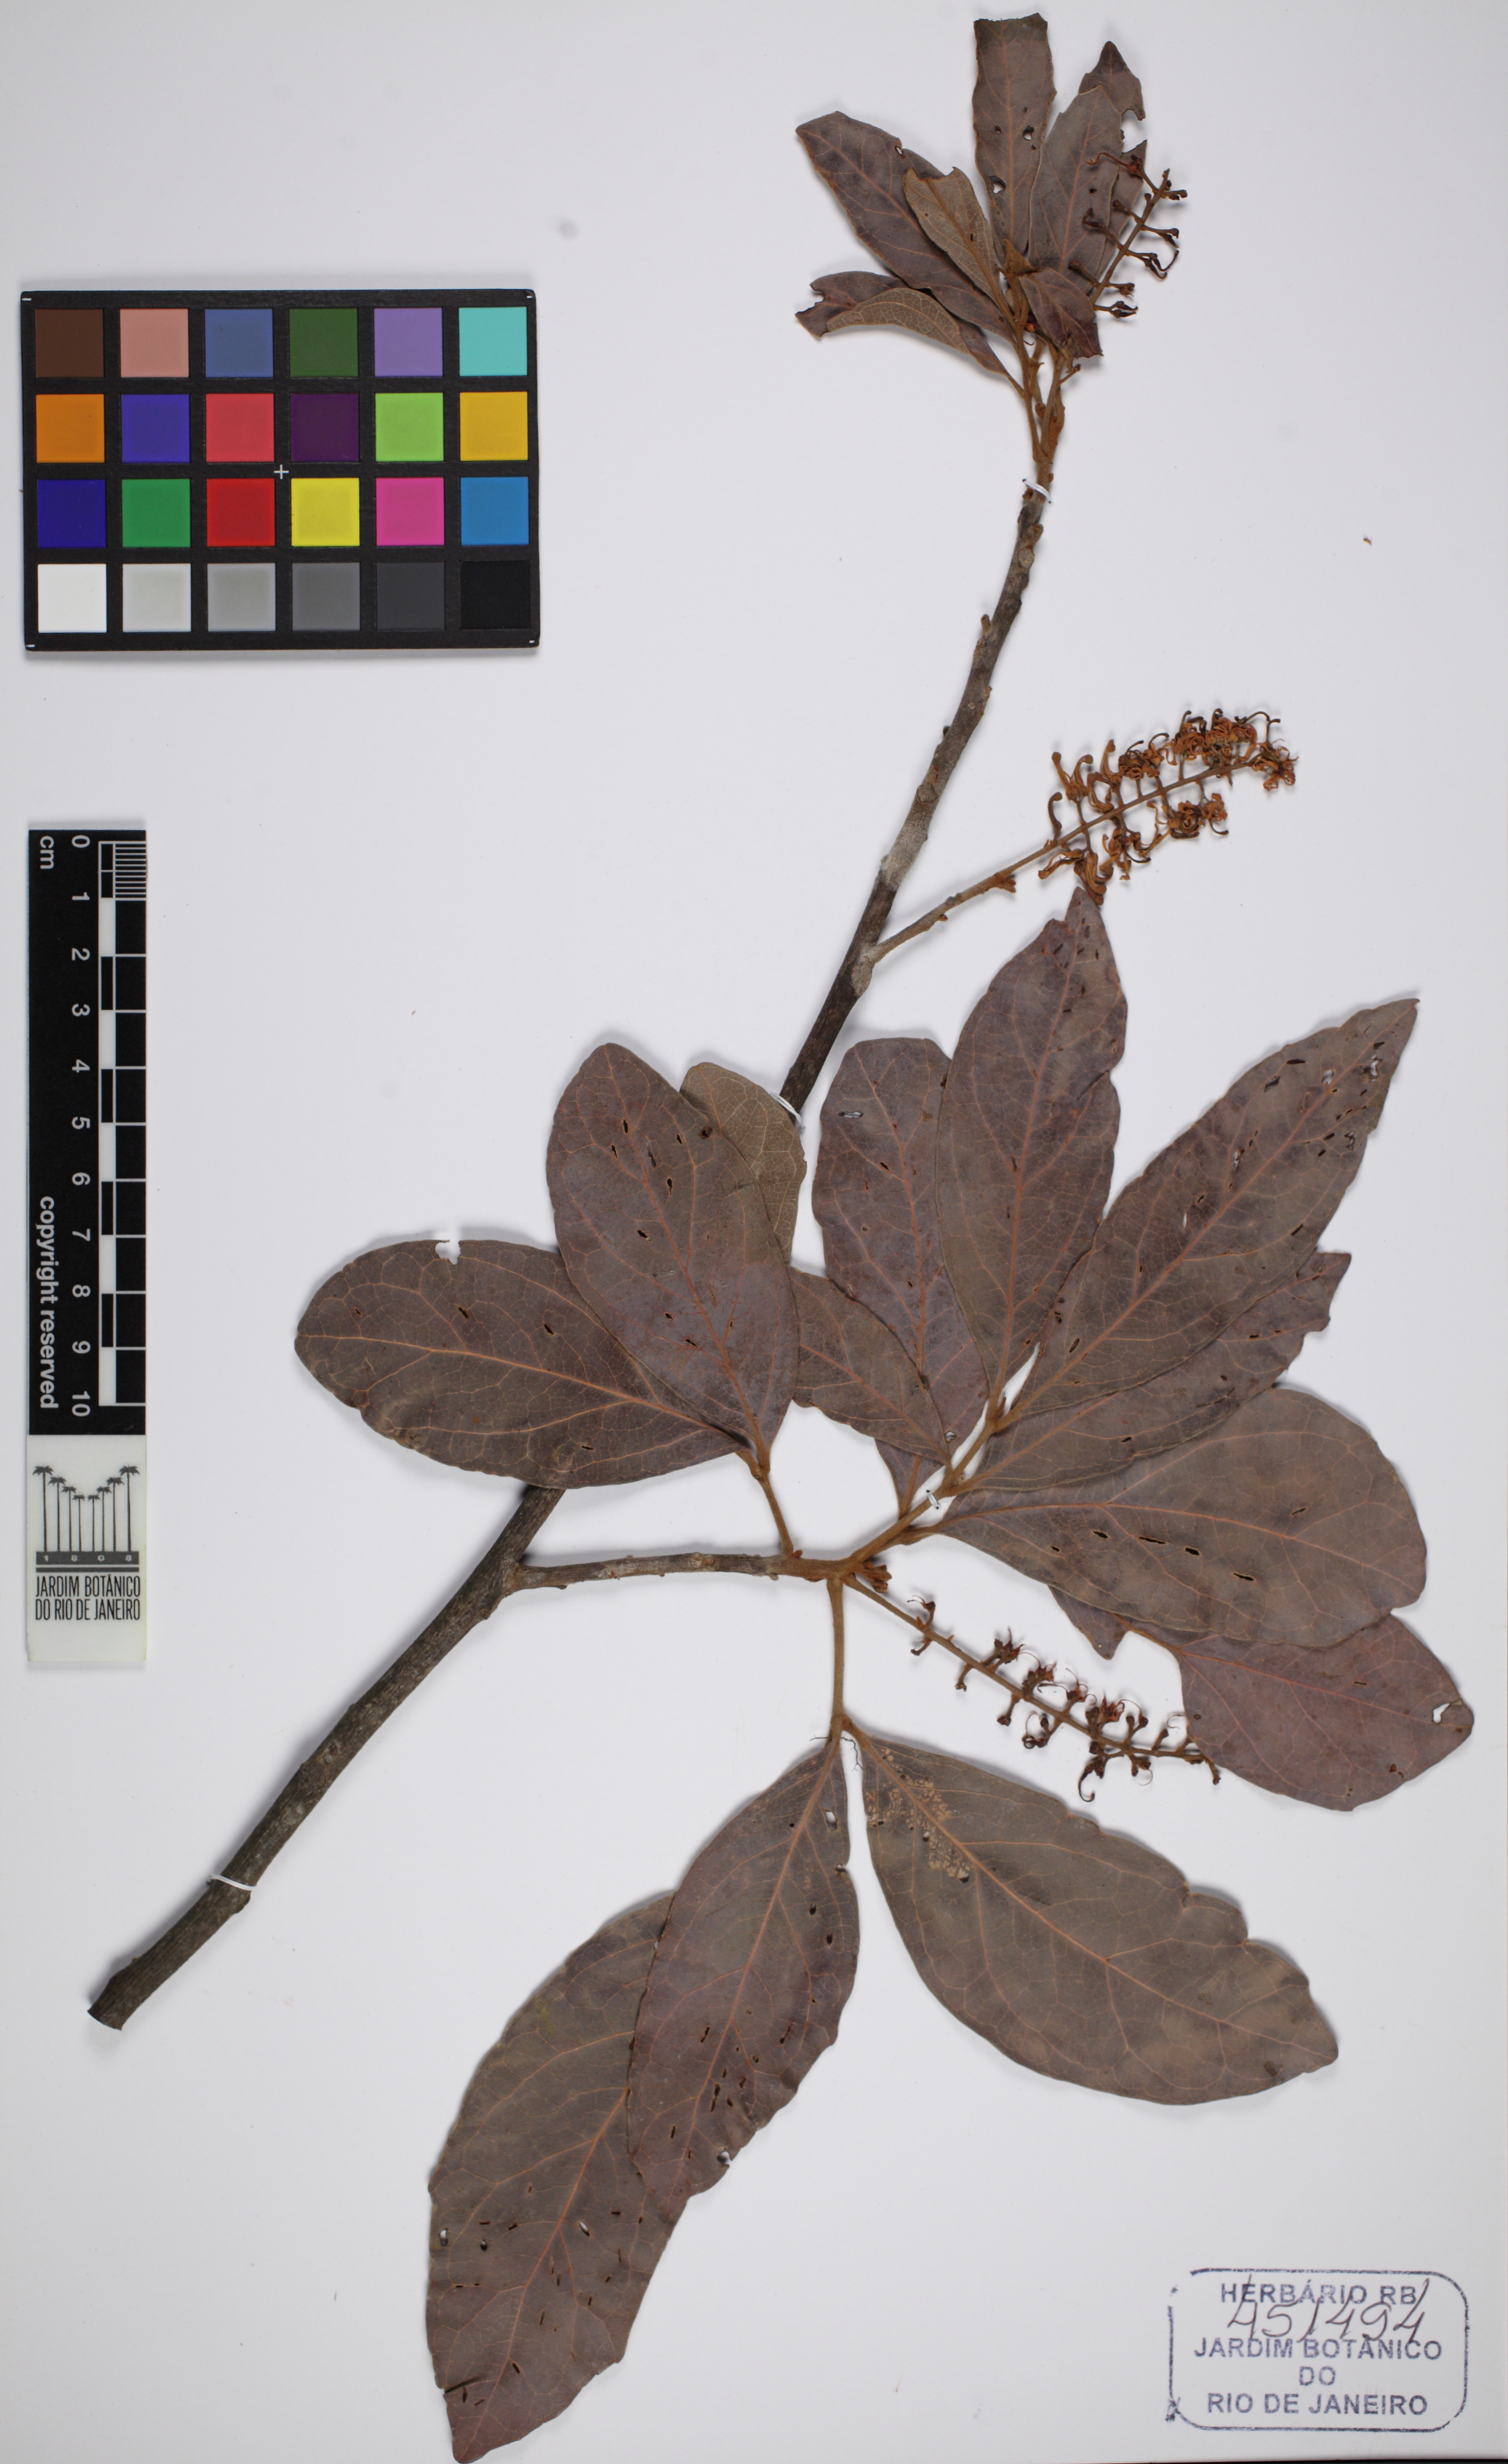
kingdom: Plantae
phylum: Tracheophyta
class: Magnoliopsida
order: Proteales
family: Proteaceae
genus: Roupala
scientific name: Roupala
